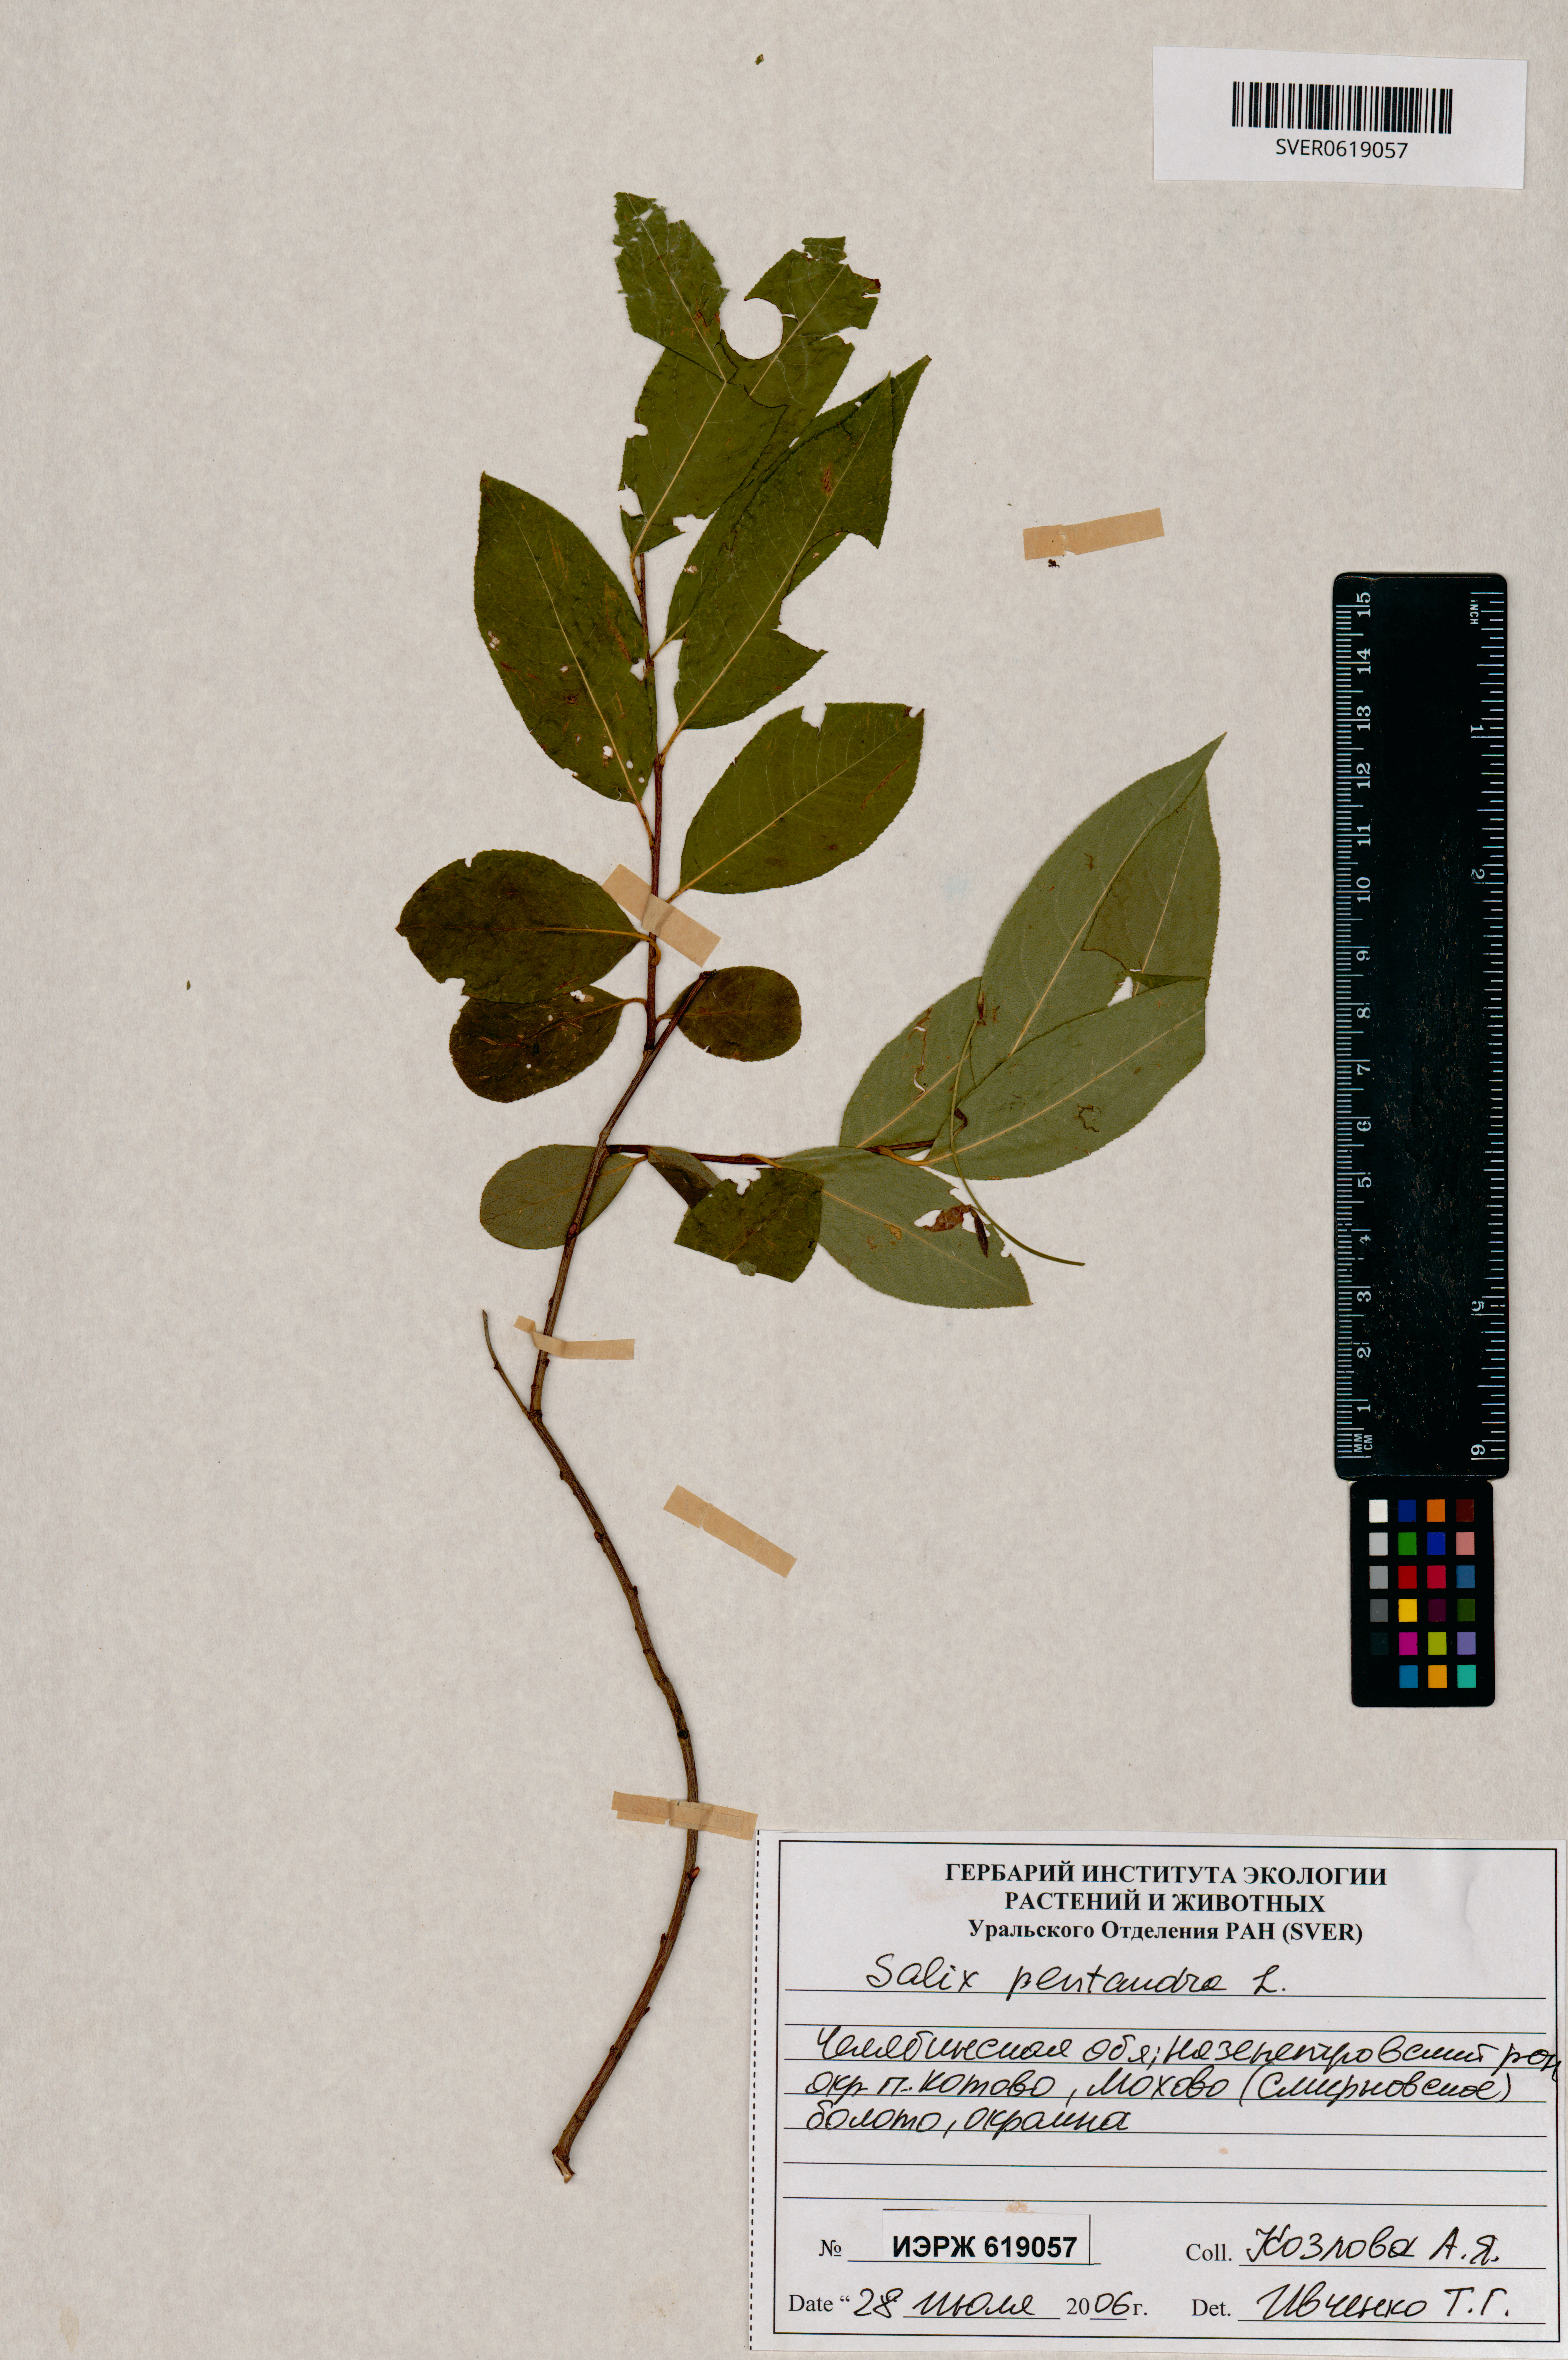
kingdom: Plantae
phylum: Tracheophyta
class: Magnoliopsida
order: Malpighiales
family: Salicaceae
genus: Salix
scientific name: Salix pentandra
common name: Bay willow
